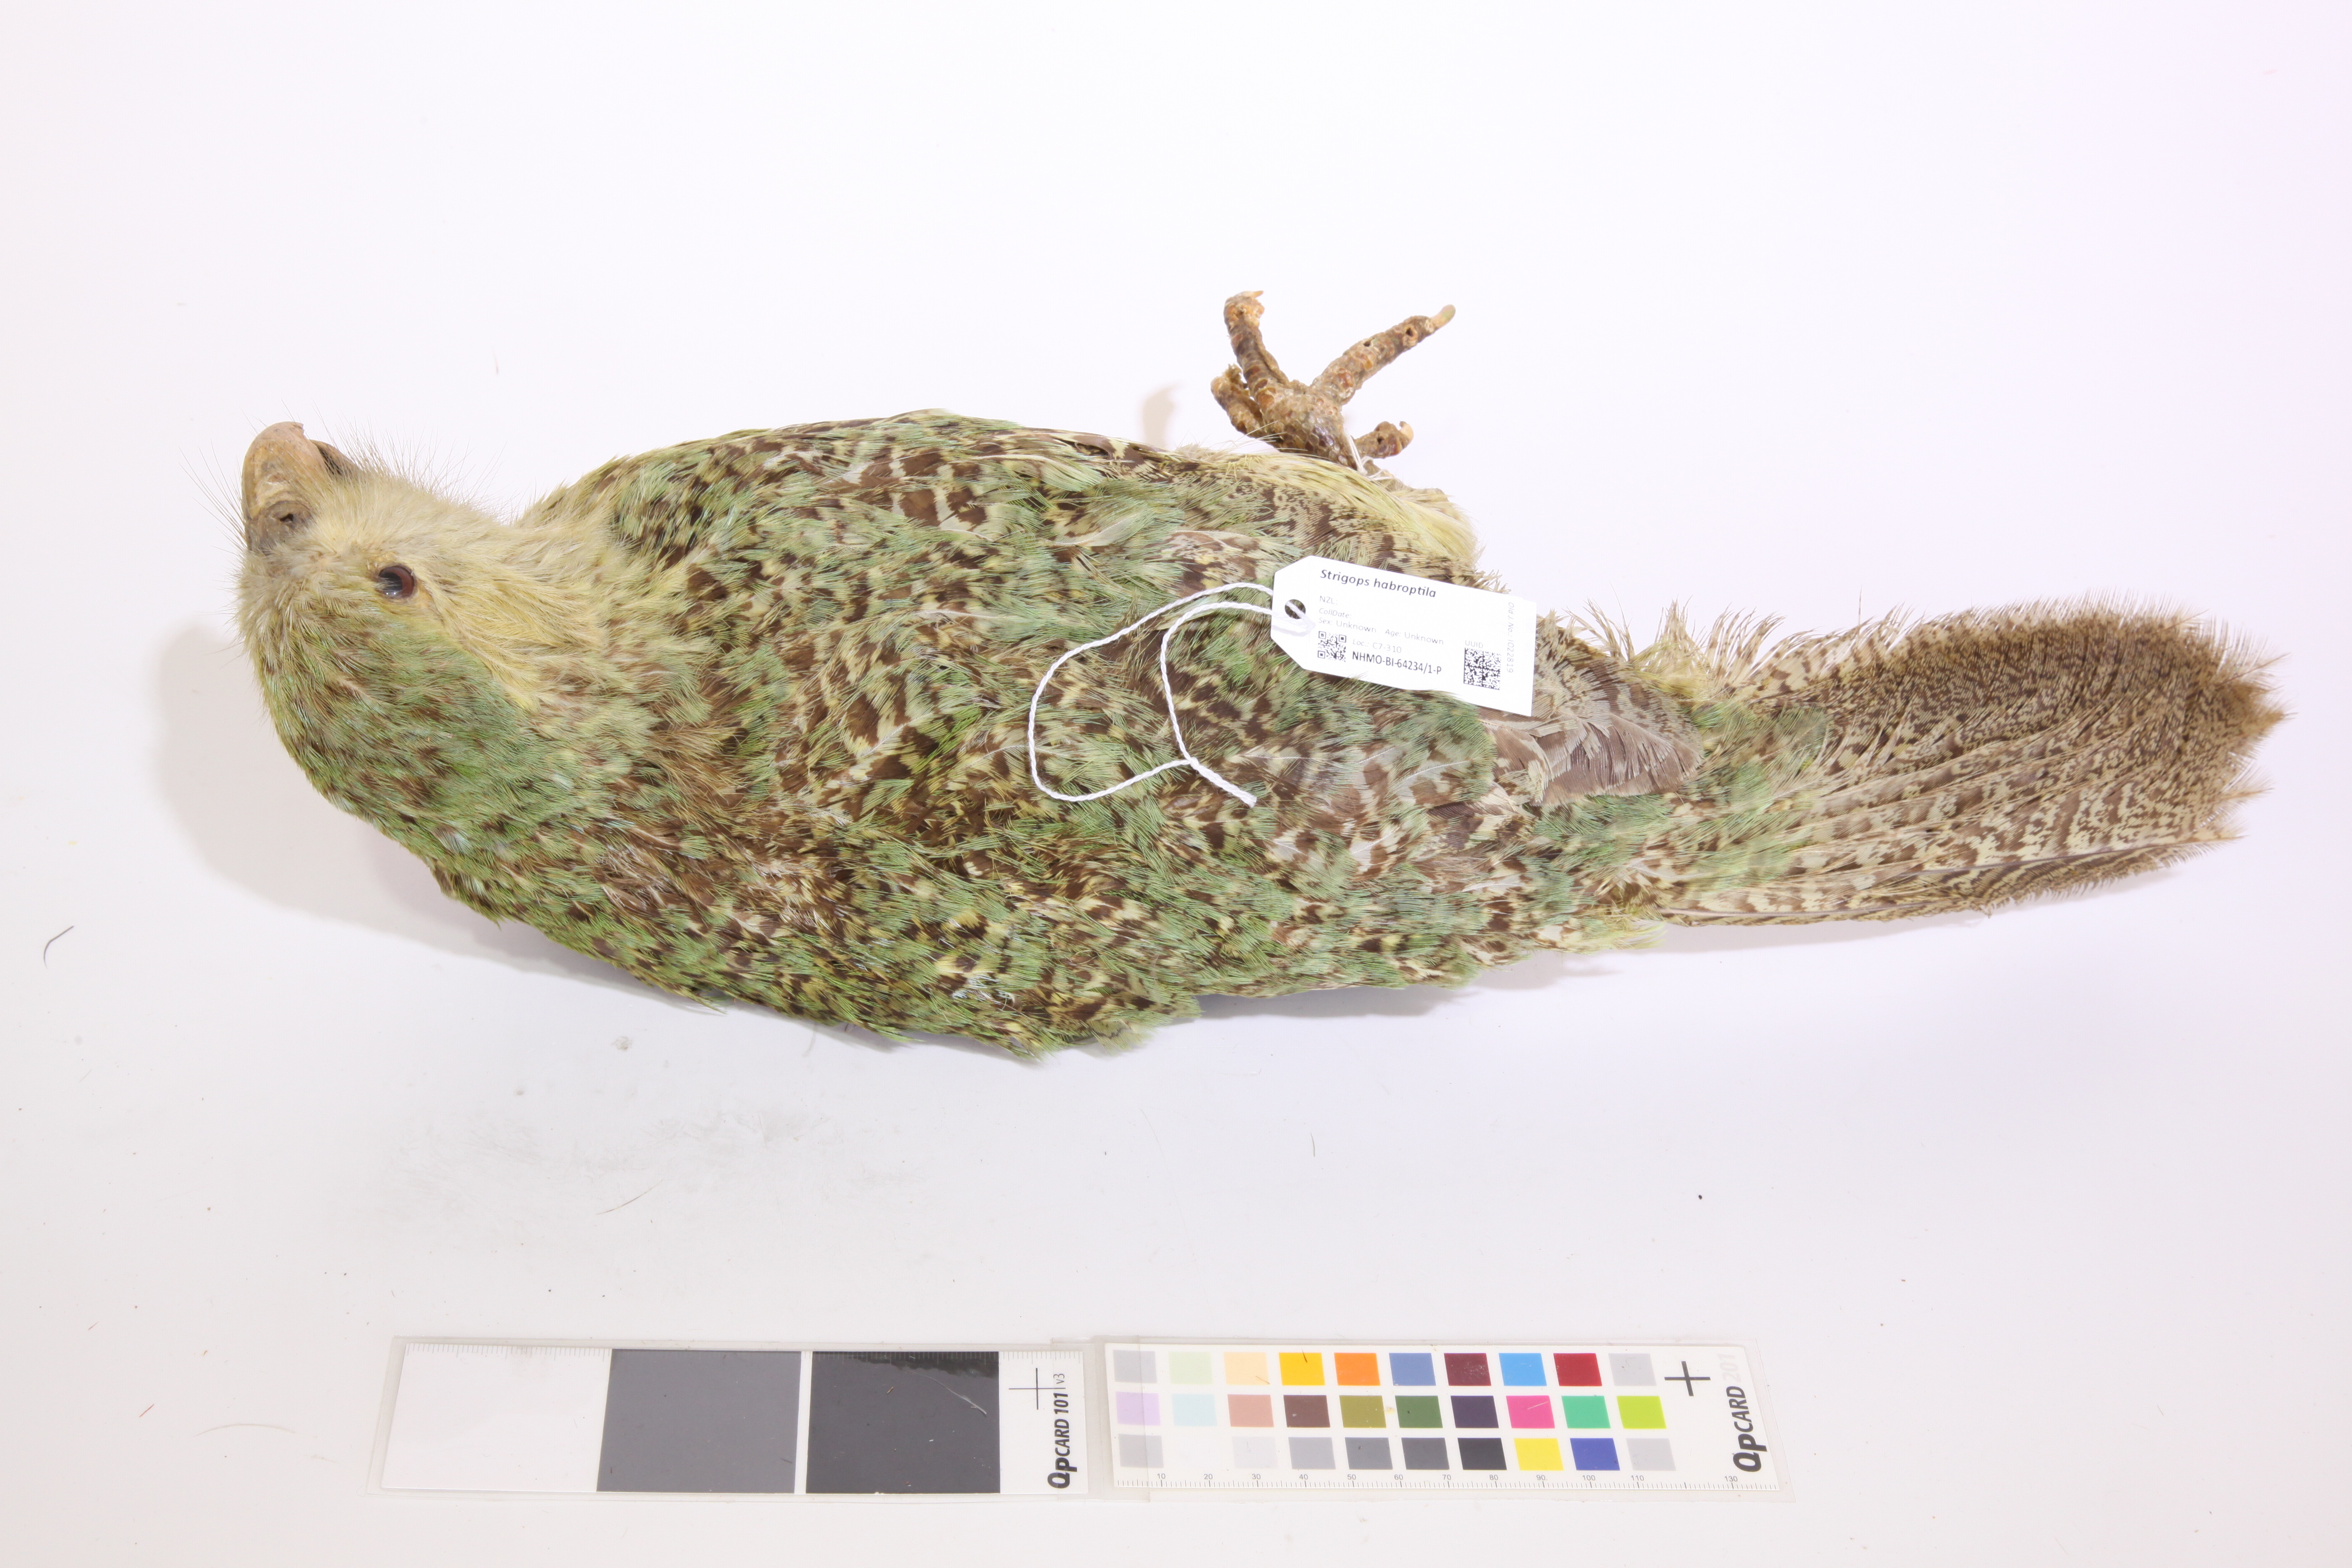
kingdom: Animalia
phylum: Chordata
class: Aves
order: Psittaciformes
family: Psittacidae
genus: Strigops
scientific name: Strigops habroptila
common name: Kakapo
